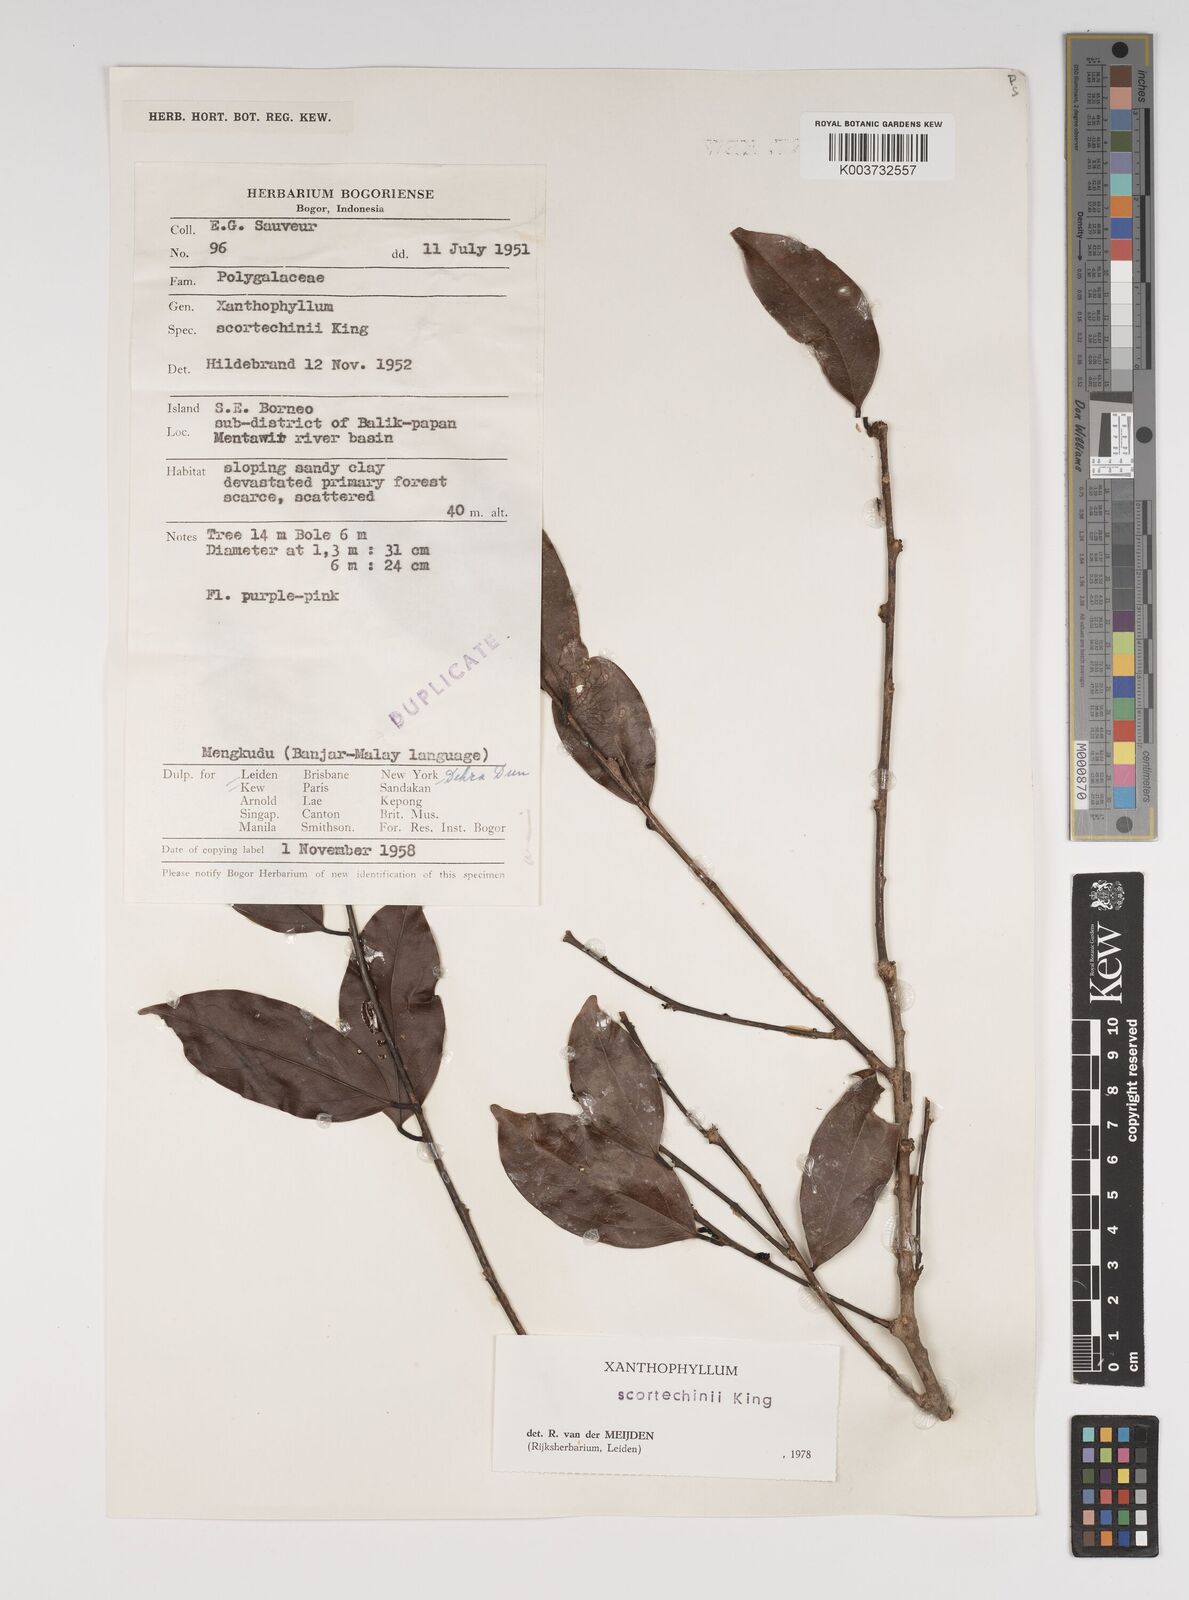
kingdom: Plantae
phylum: Tracheophyta
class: Magnoliopsida
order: Fabales
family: Polygalaceae
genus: Xanthophyllum
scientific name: Xanthophyllum obscurum
